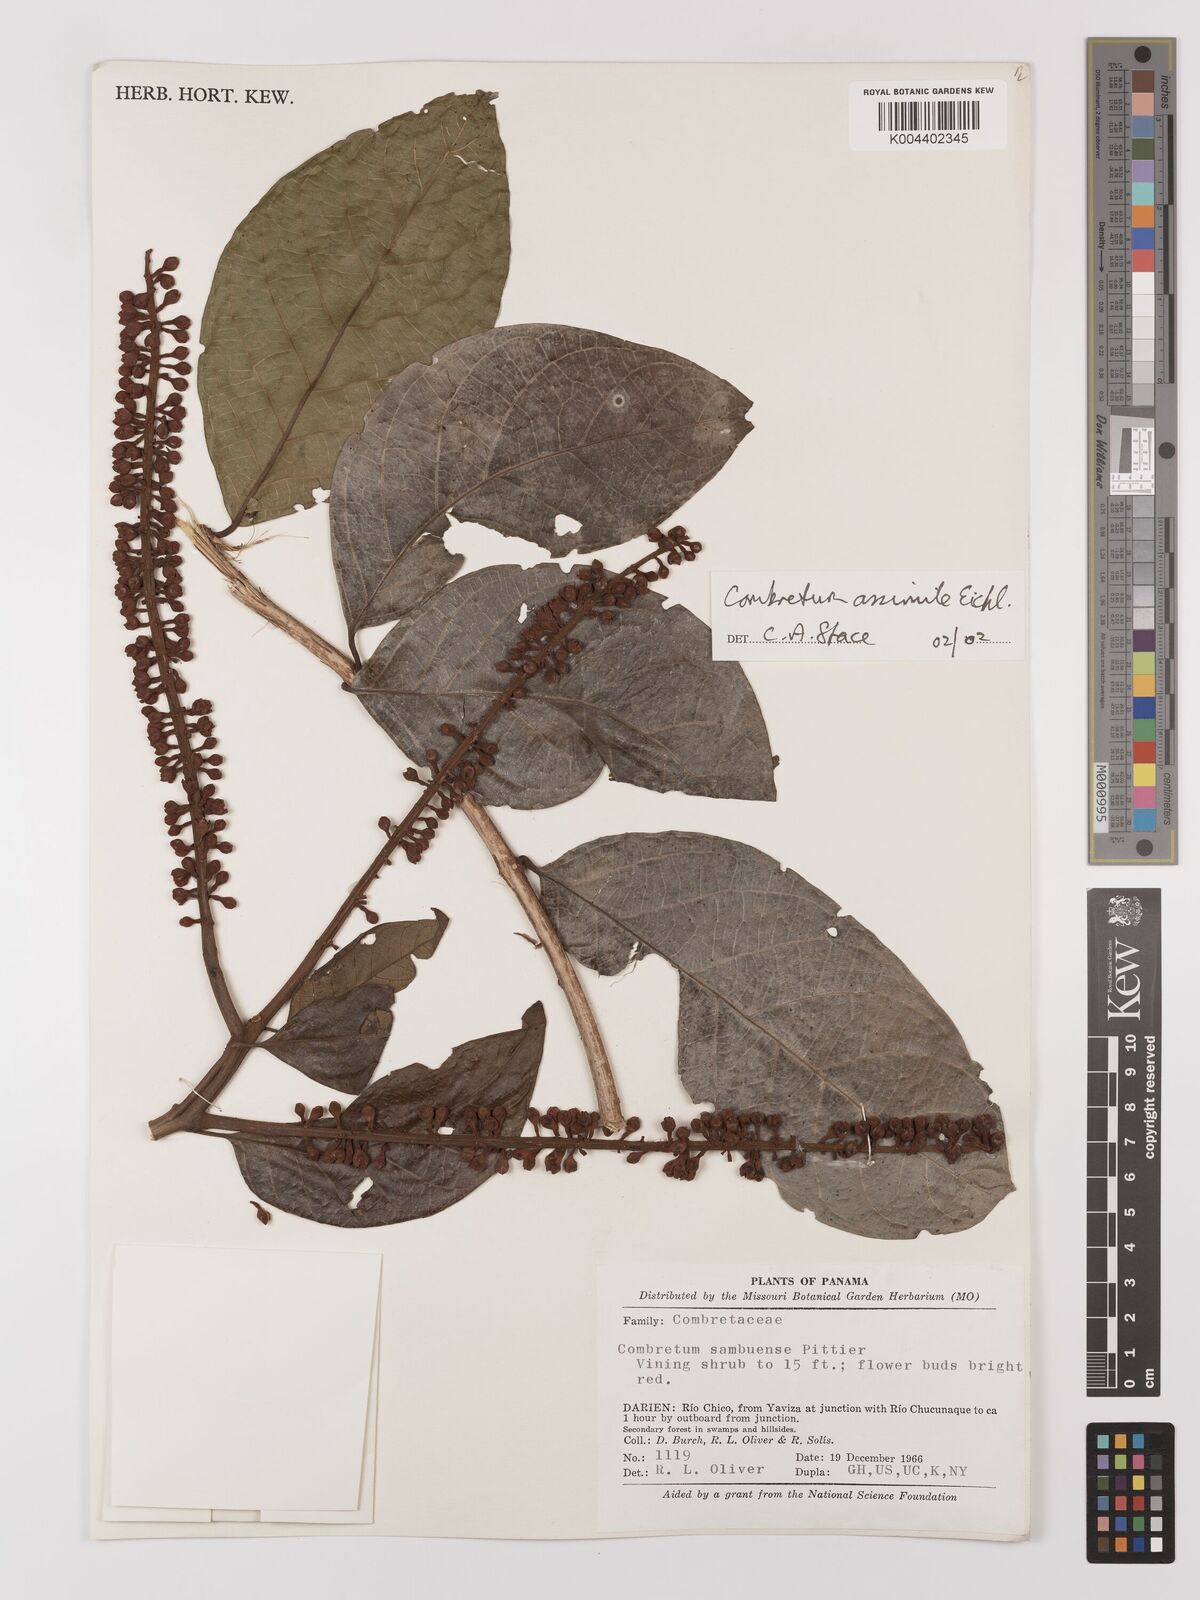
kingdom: Plantae
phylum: Tracheophyta
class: Magnoliopsida
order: Myrtales
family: Combretaceae
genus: Combretum
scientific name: Combretum assimile
